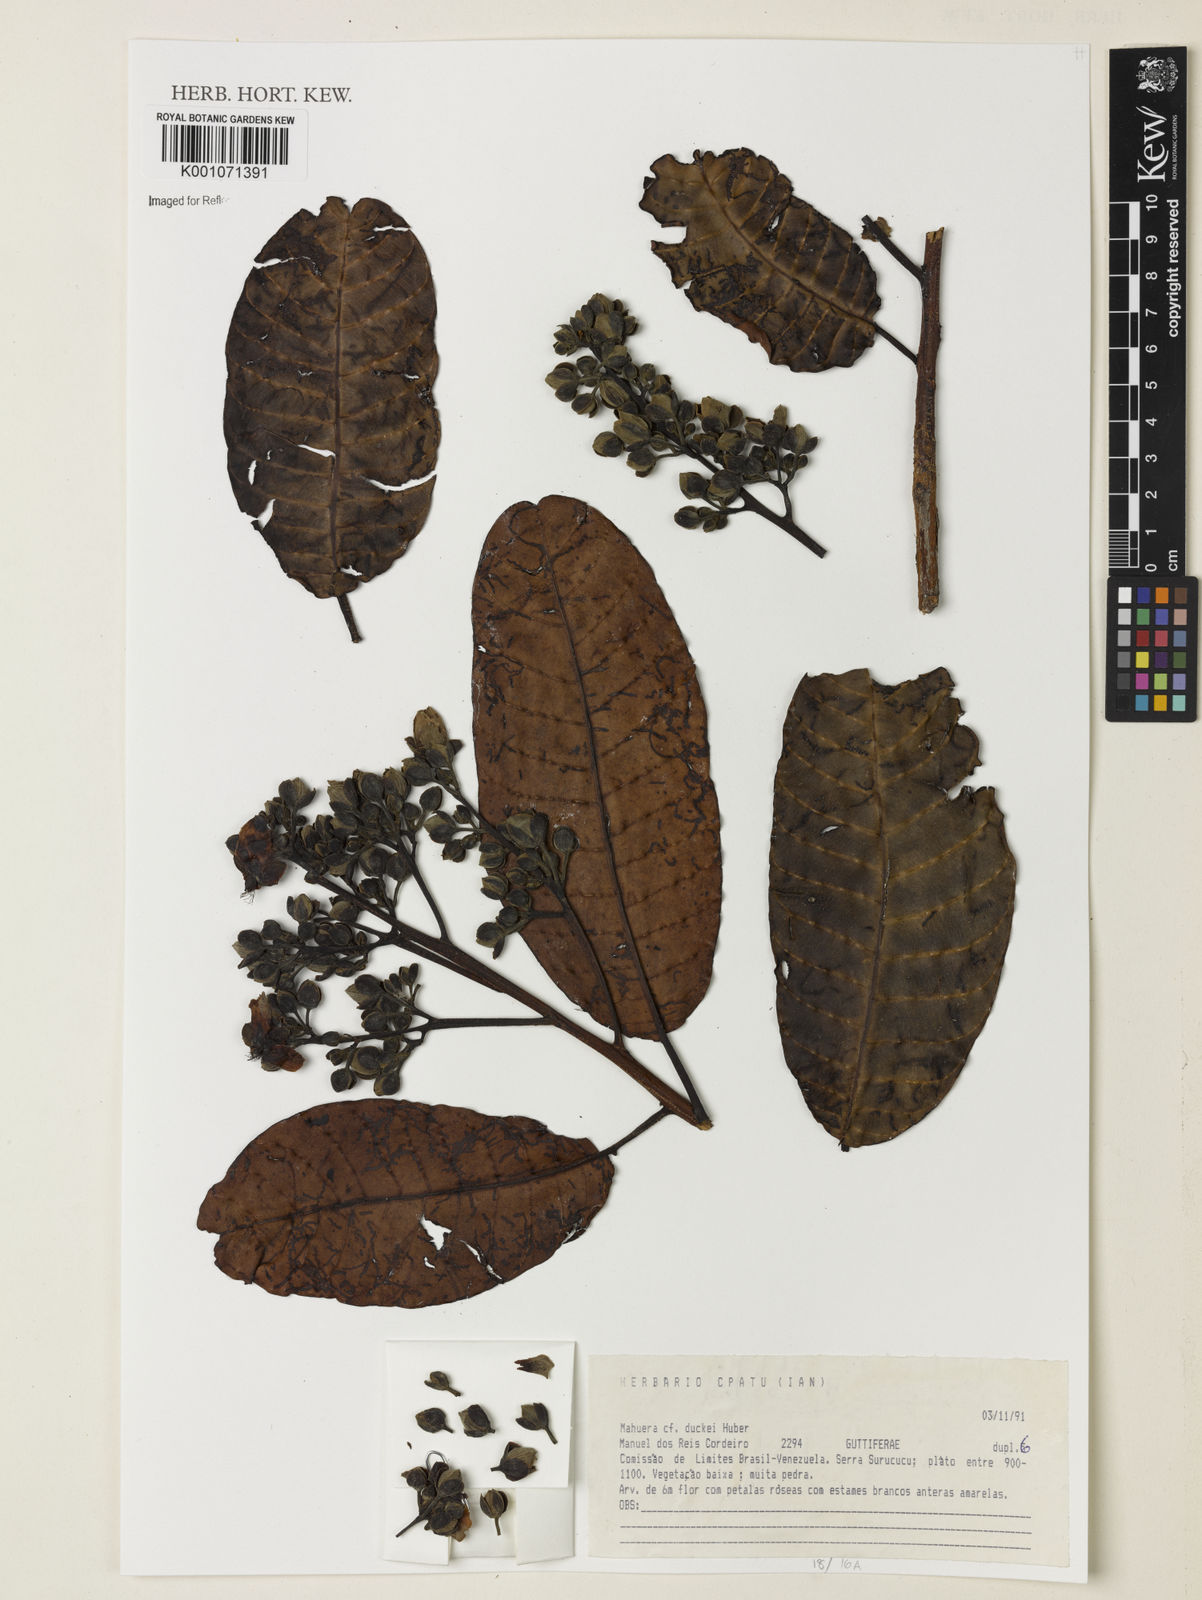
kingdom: Plantae
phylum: Tracheophyta
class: Magnoliopsida
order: Malpighiales
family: Calophyllaceae
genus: Mahurea
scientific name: Mahurea exstipulata
